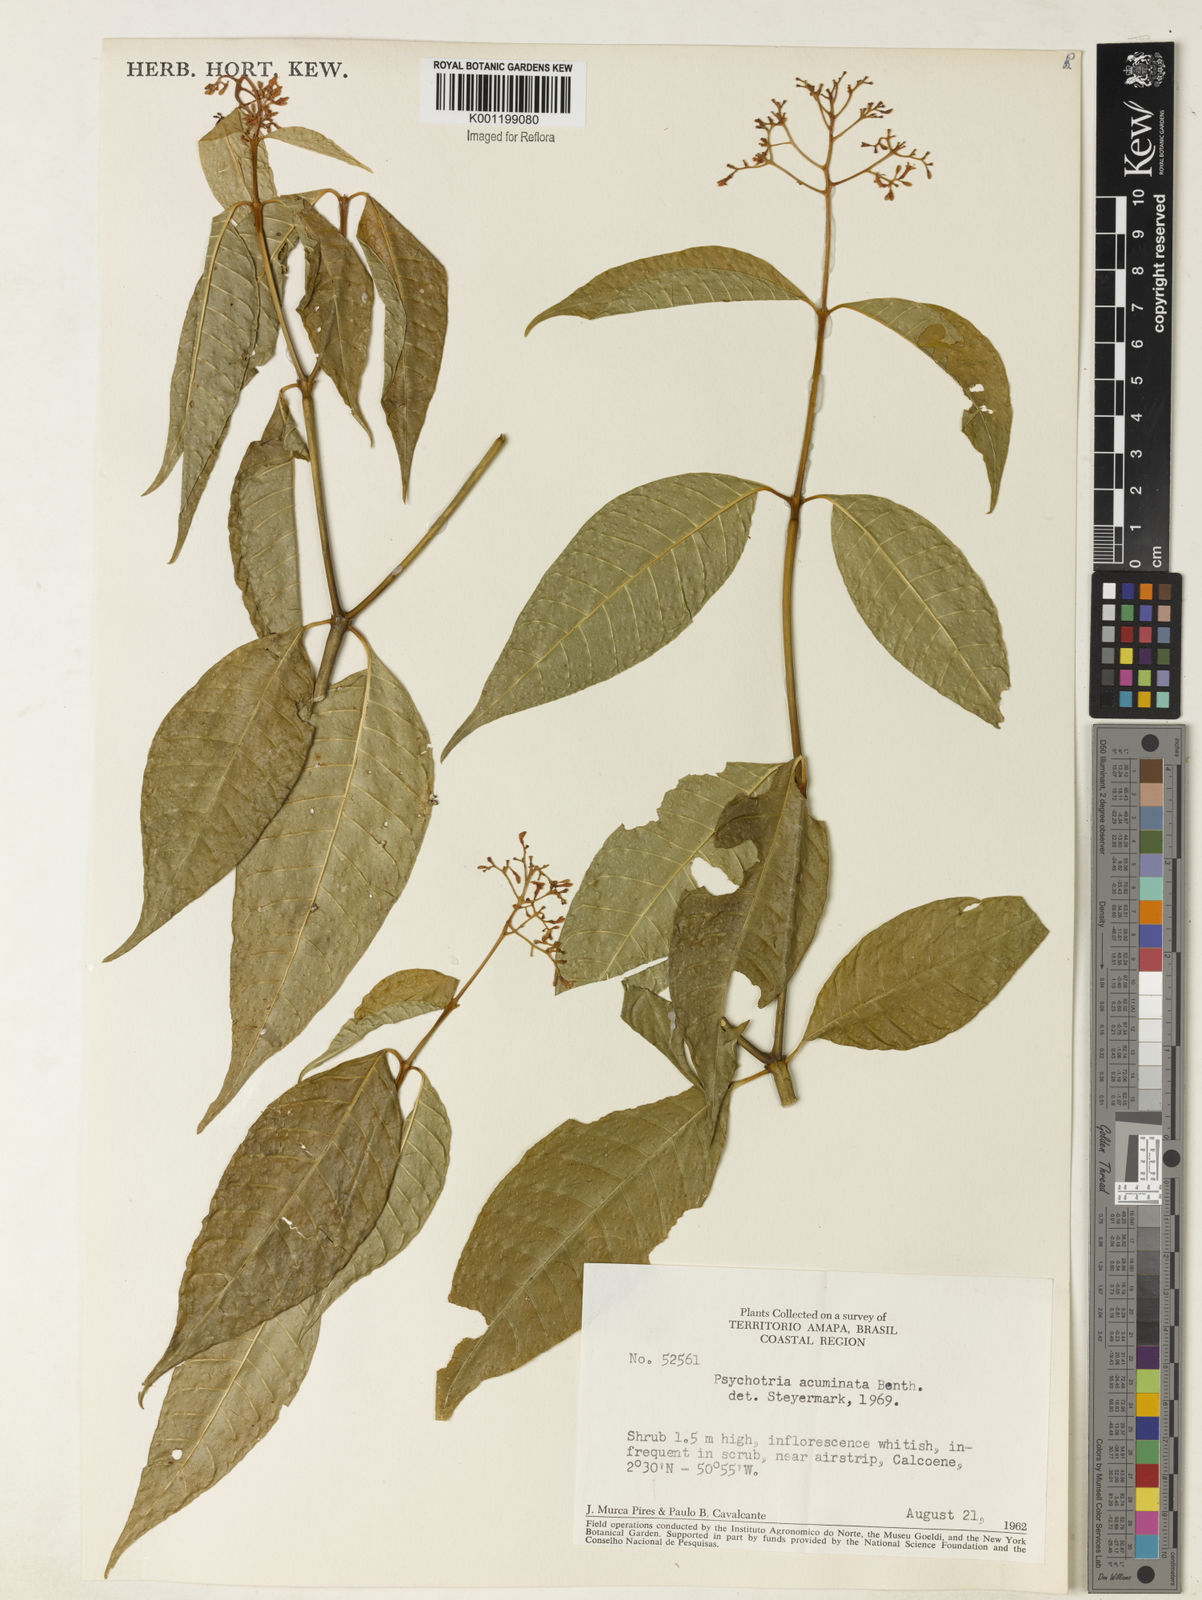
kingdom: Plantae
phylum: Tracheophyta
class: Magnoliopsida
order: Gentianales
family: Rubiaceae
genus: Palicourea
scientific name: Palicourea cuspidata
